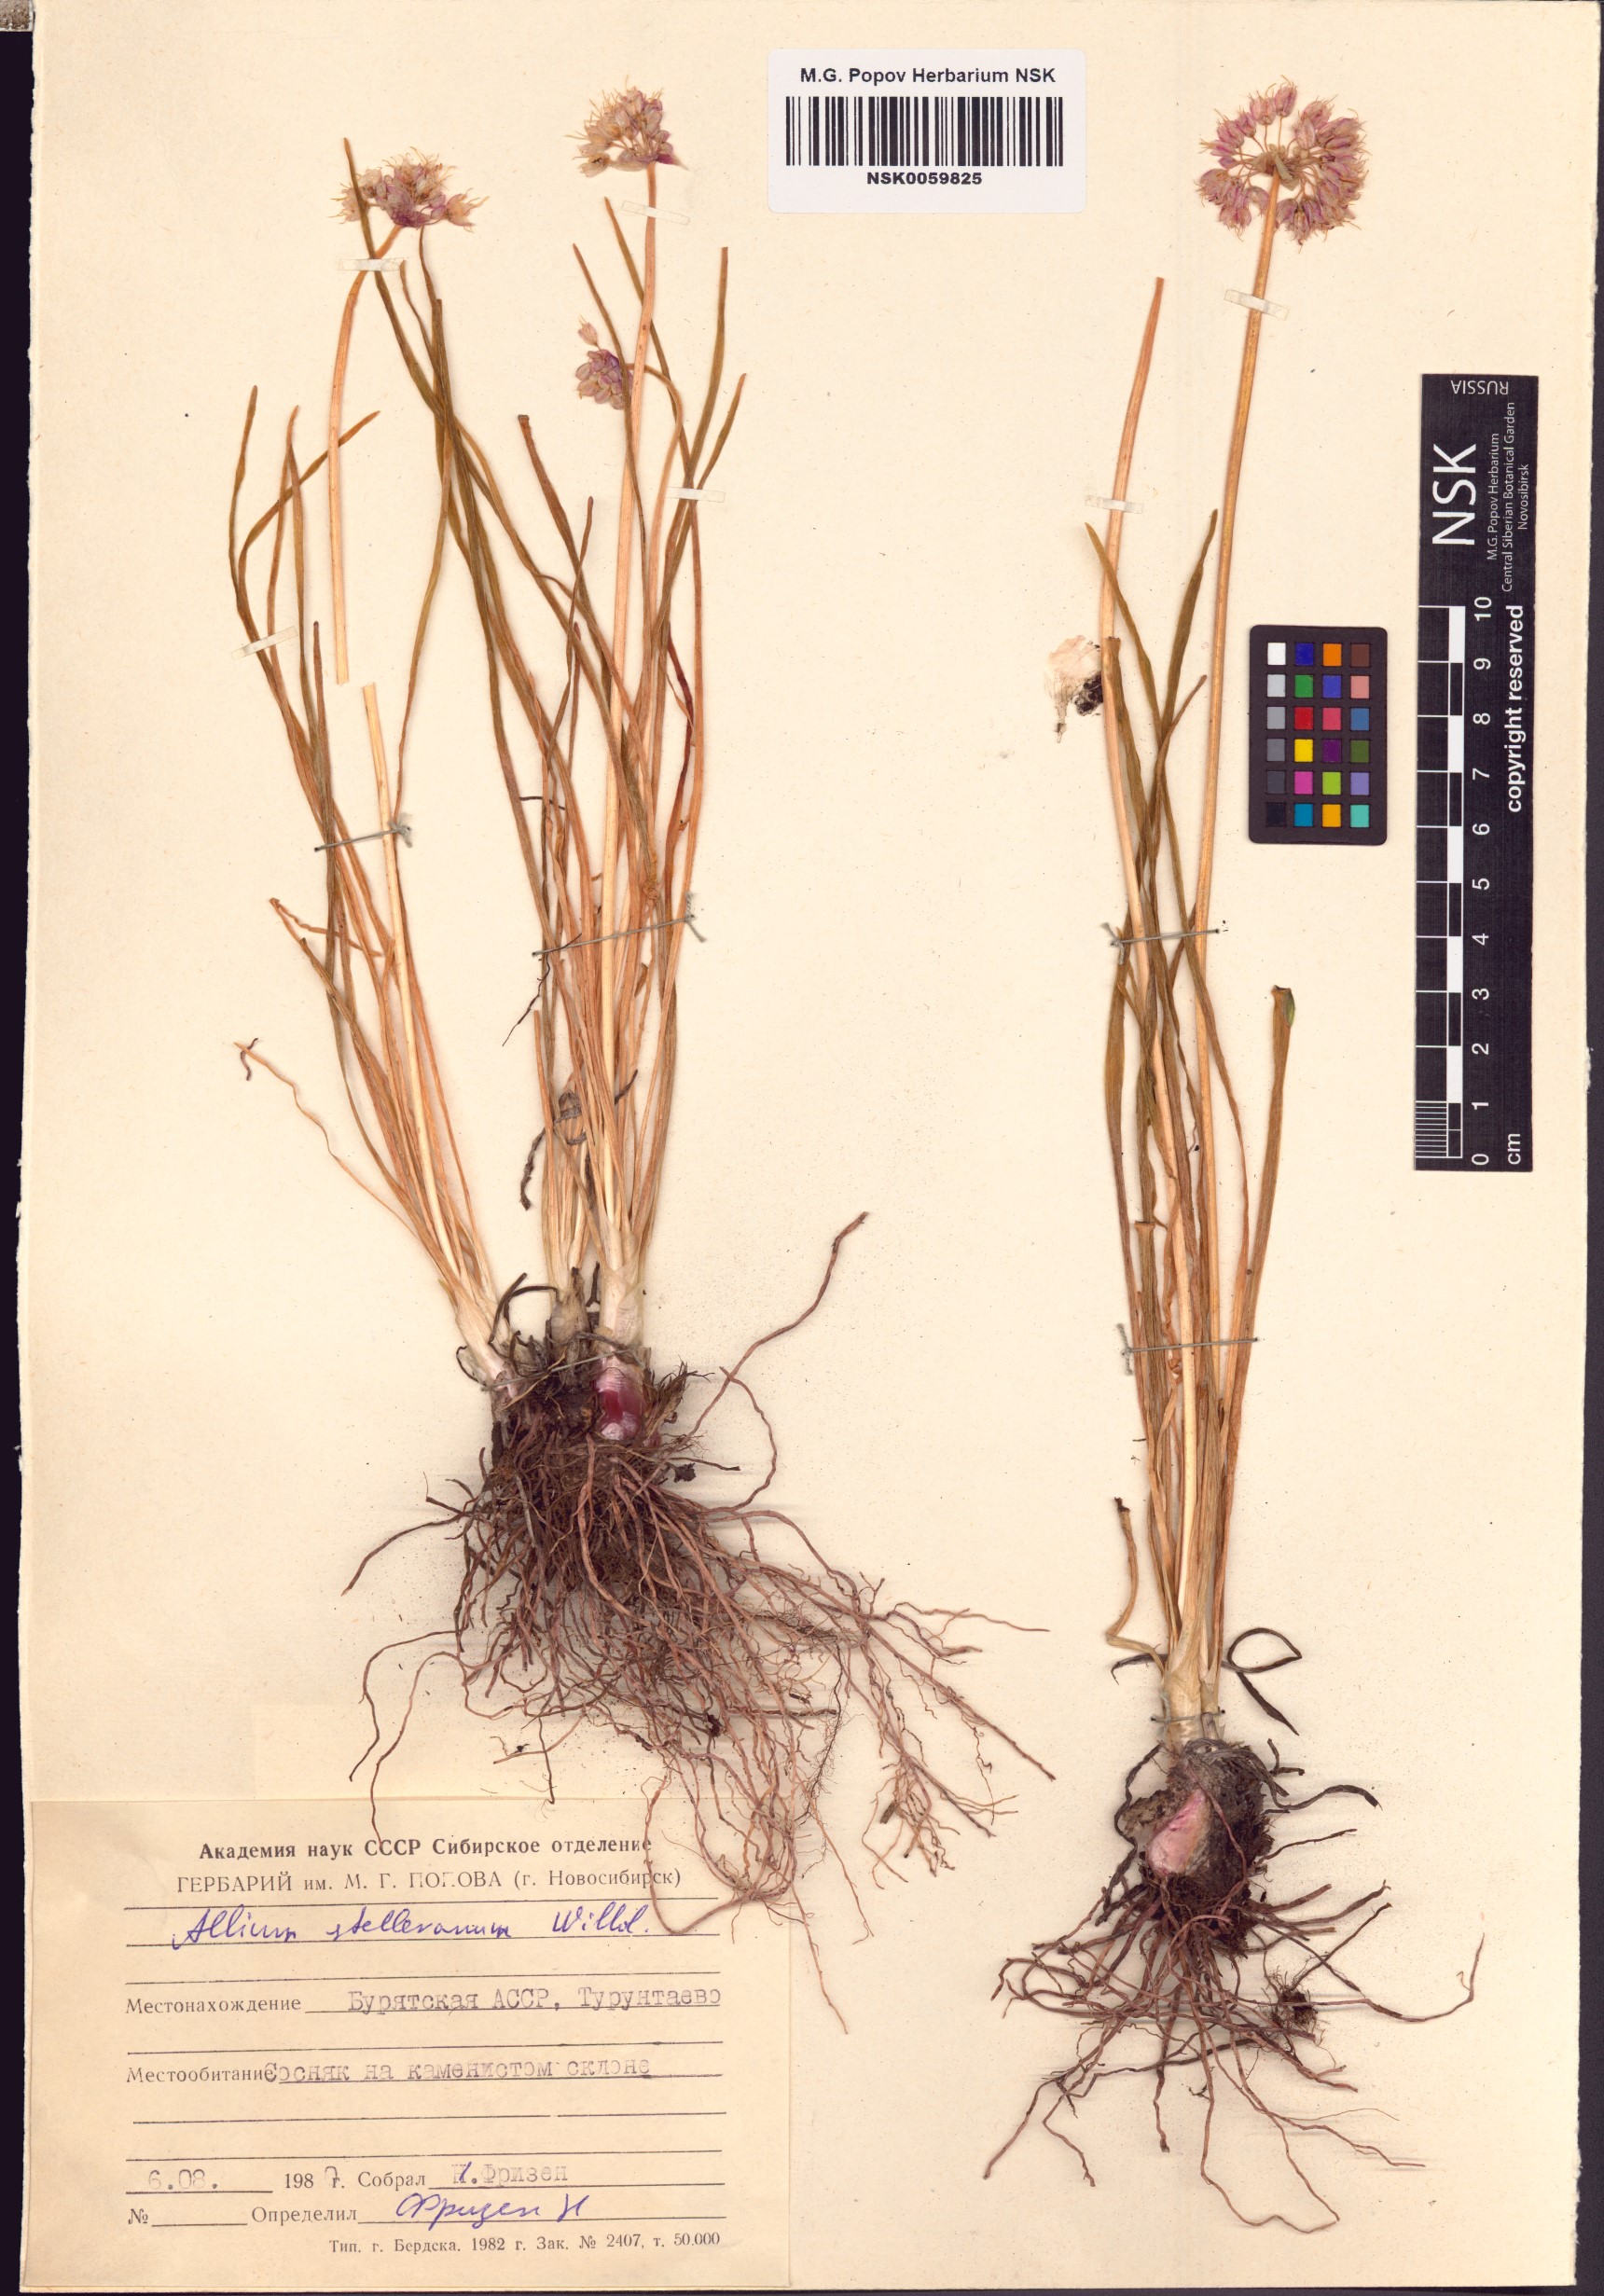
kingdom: Plantae
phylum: Tracheophyta
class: Liliopsida
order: Asparagales
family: Amaryllidaceae
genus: Allium
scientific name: Allium stellerianum
